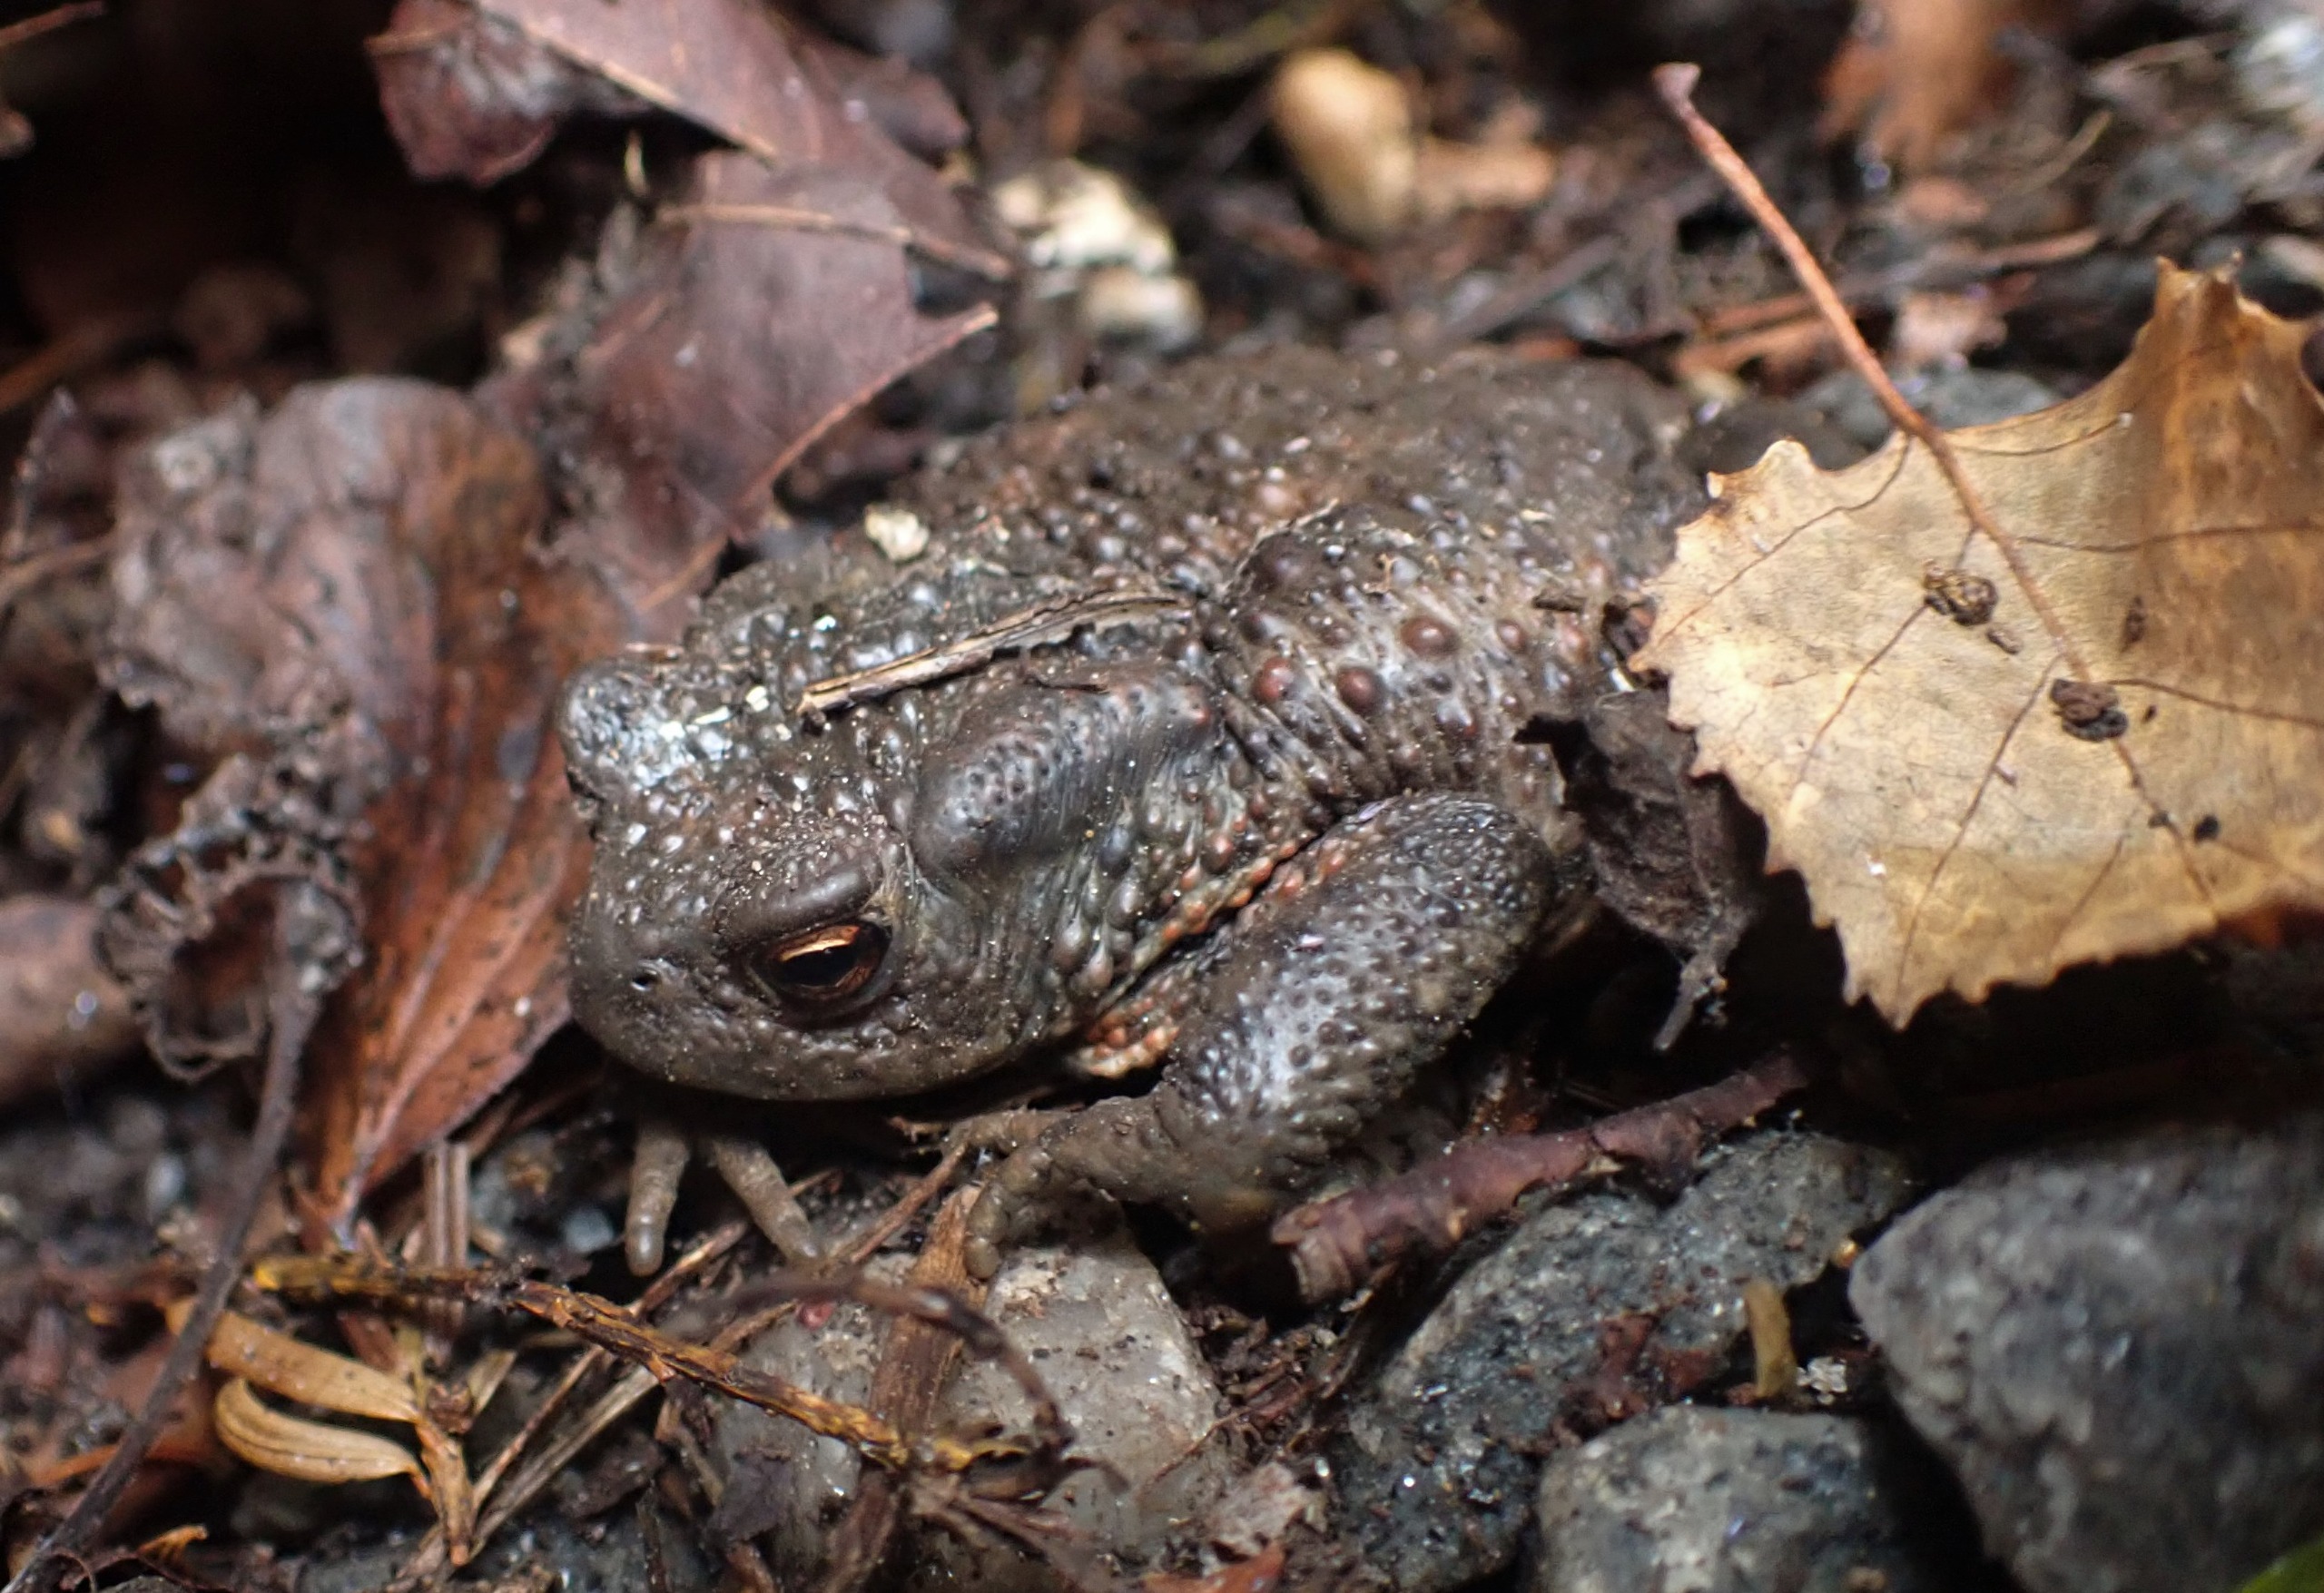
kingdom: Animalia
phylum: Chordata
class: Amphibia
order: Anura
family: Bufonidae
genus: Bufo
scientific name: Bufo bufo
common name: Skrubtudse
